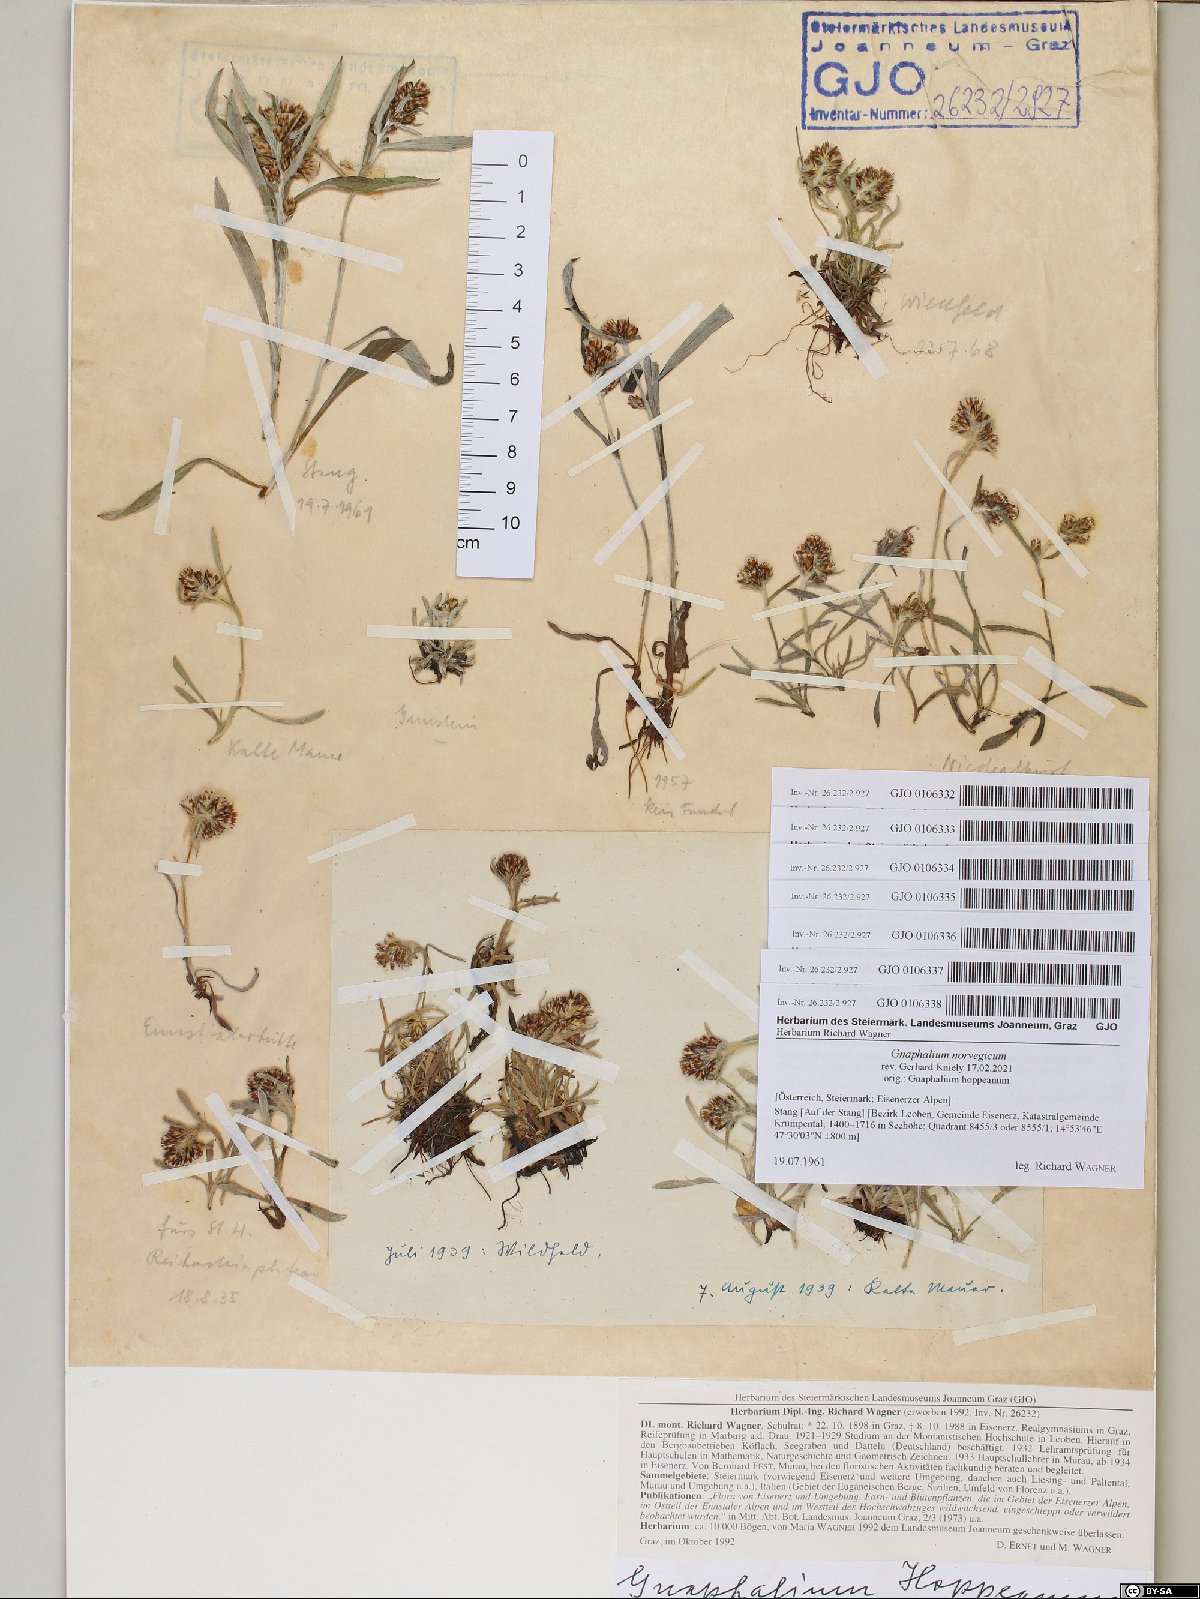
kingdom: Plantae
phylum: Tracheophyta
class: Magnoliopsida
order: Asterales
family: Asteraceae
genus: Omalotheca
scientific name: Omalotheca hoppeana
